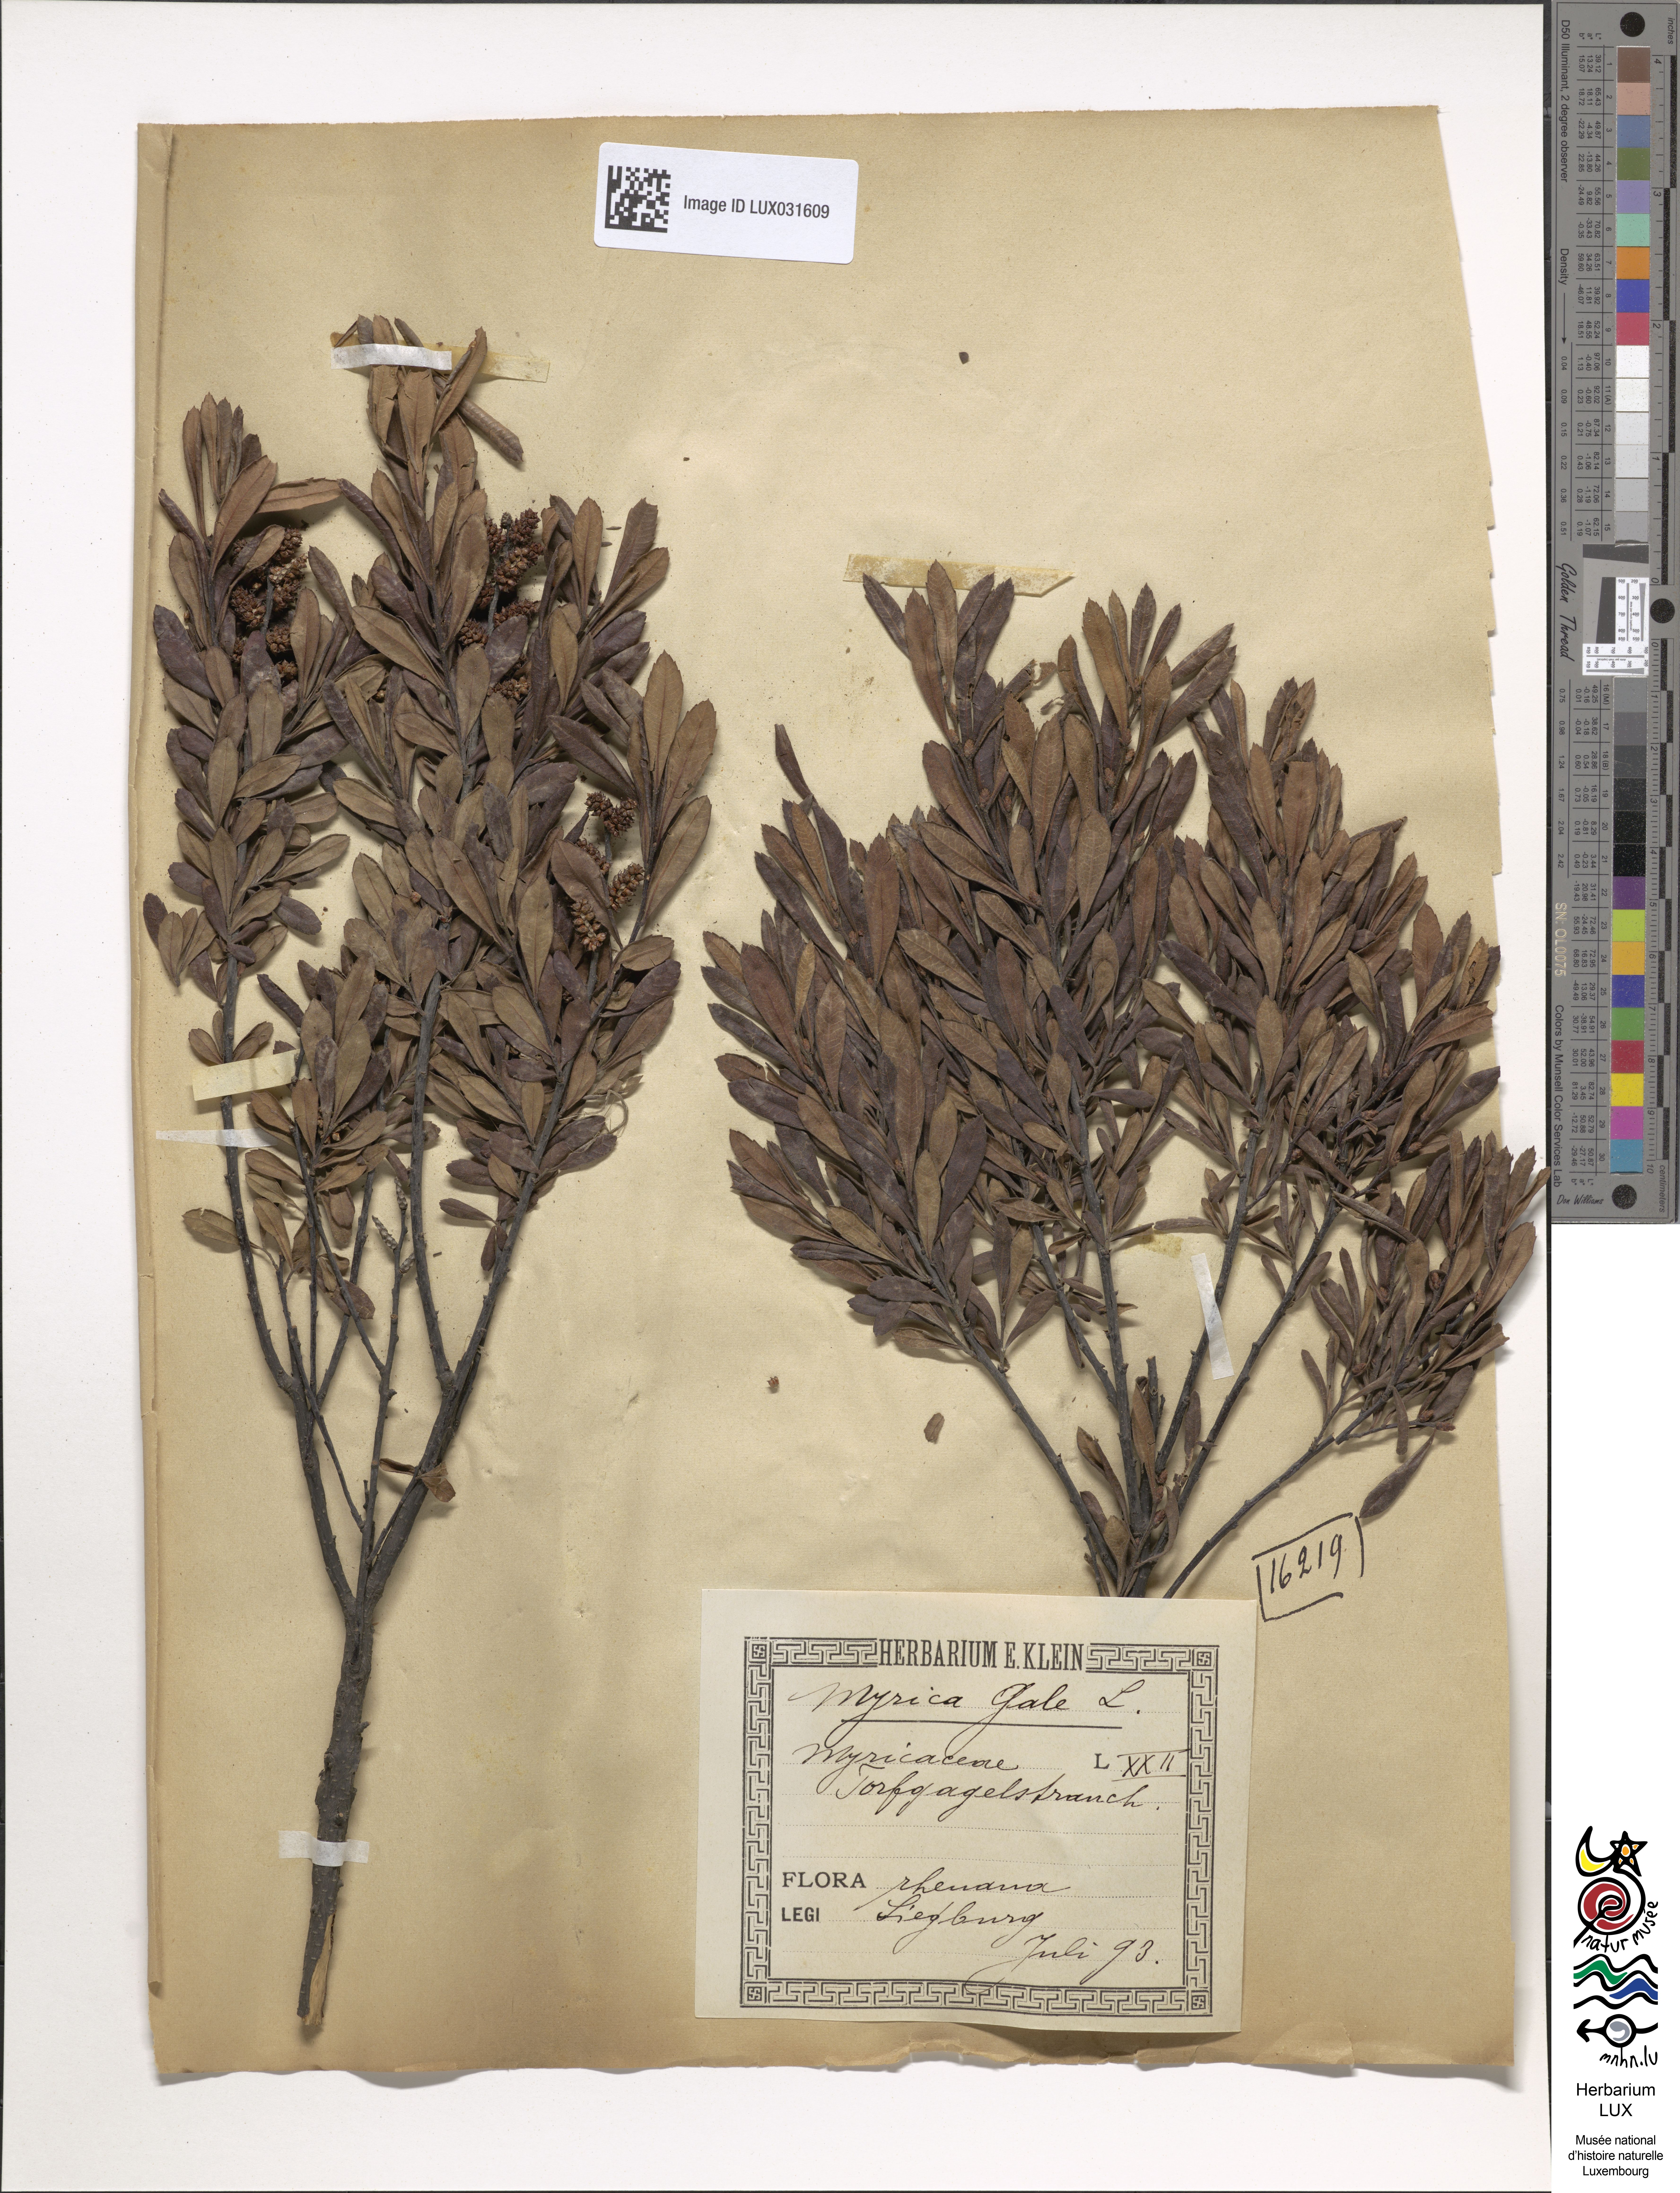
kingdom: Plantae
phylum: Tracheophyta
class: Magnoliopsida
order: Fagales
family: Myricaceae
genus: Myrica
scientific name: Myrica gale
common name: Sweet gale
